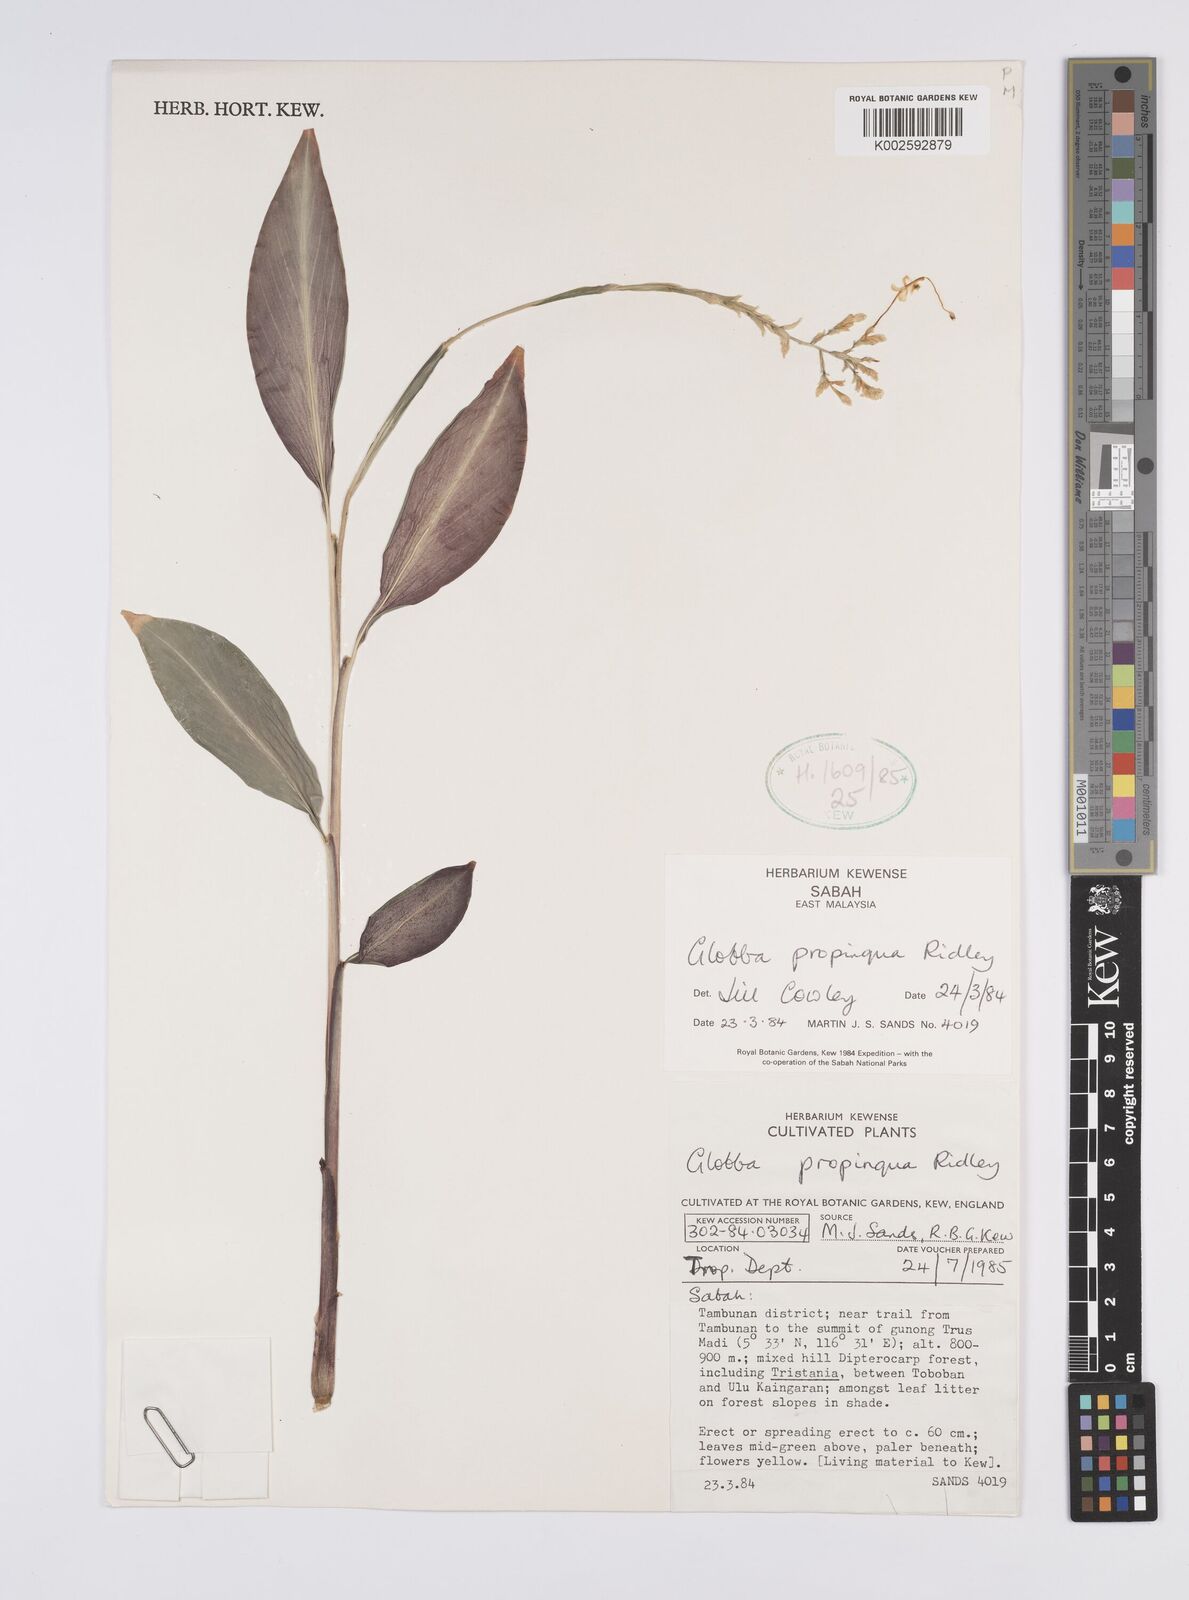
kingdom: Plantae
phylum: Tracheophyta
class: Liliopsida
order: Zingiberales
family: Zingiberaceae
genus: Globba
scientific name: Globba propinqua
